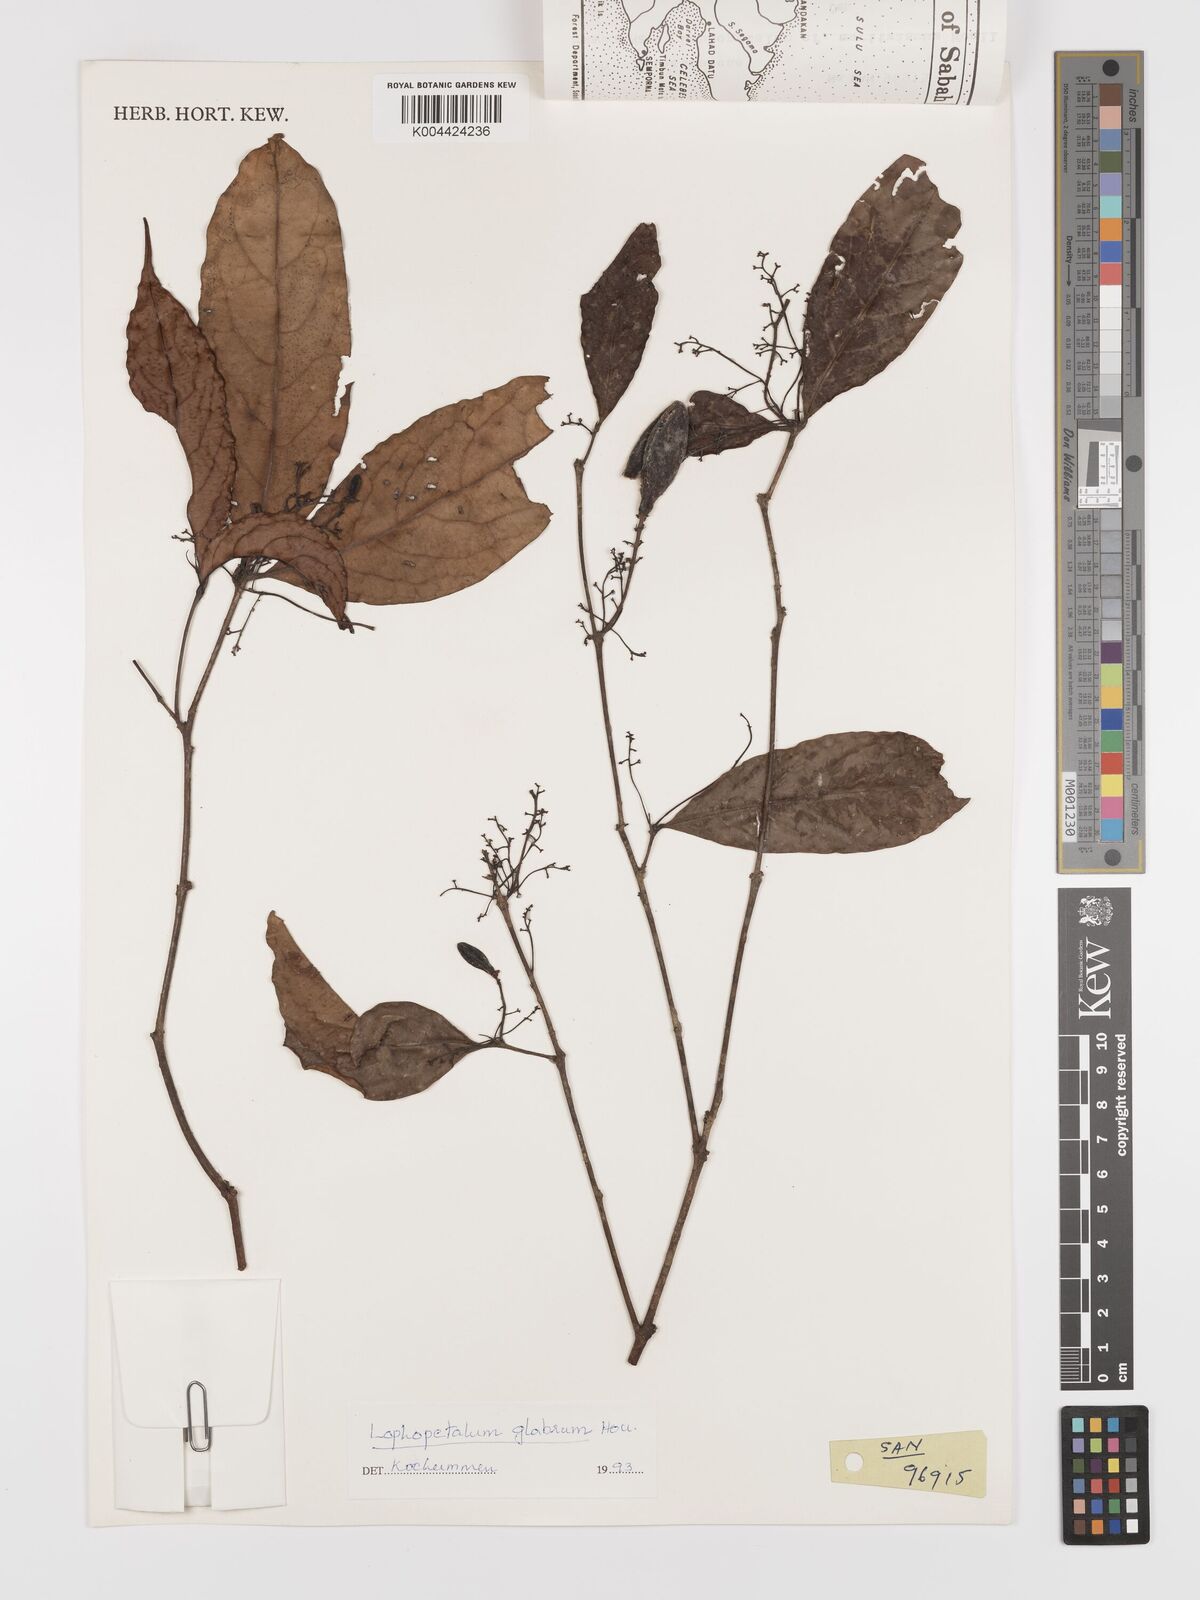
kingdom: Plantae
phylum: Tracheophyta
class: Magnoliopsida
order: Celastrales
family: Celastraceae
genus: Lophopetalum
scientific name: Lophopetalum glabrum
